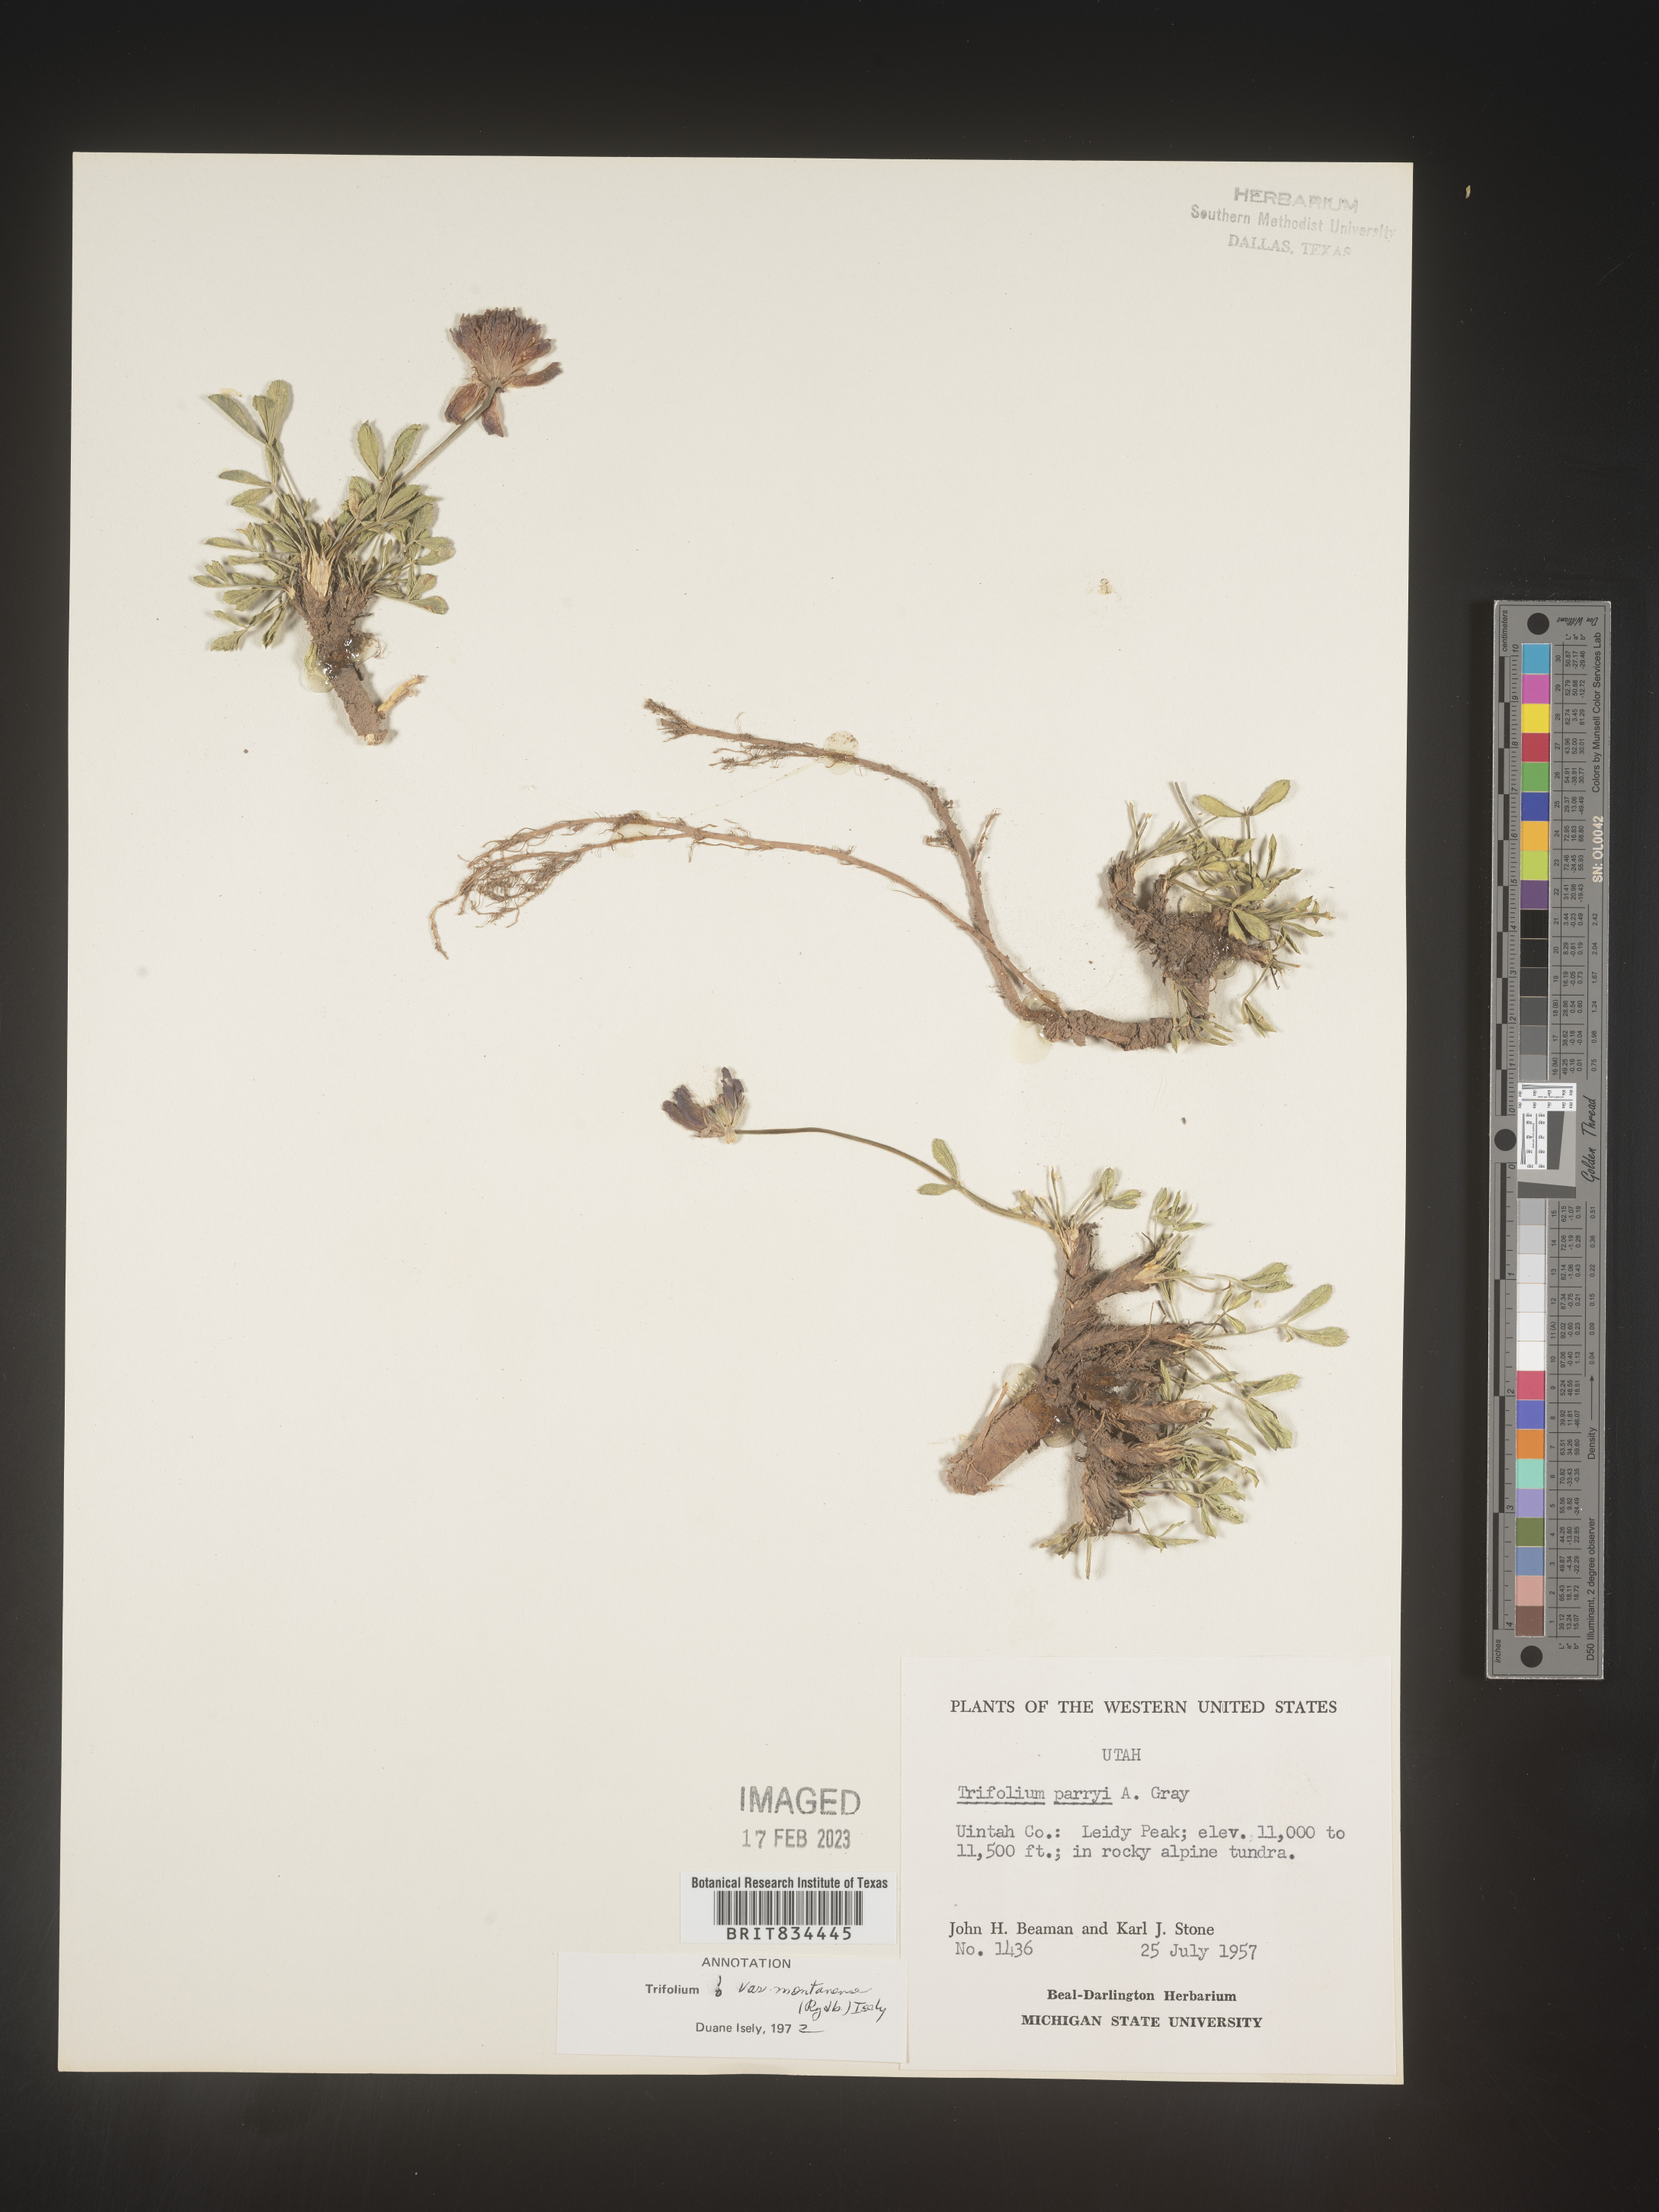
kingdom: Plantae
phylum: Tracheophyta
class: Magnoliopsida
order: Fabales
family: Fabaceae
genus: Trifolium
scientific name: Trifolium
